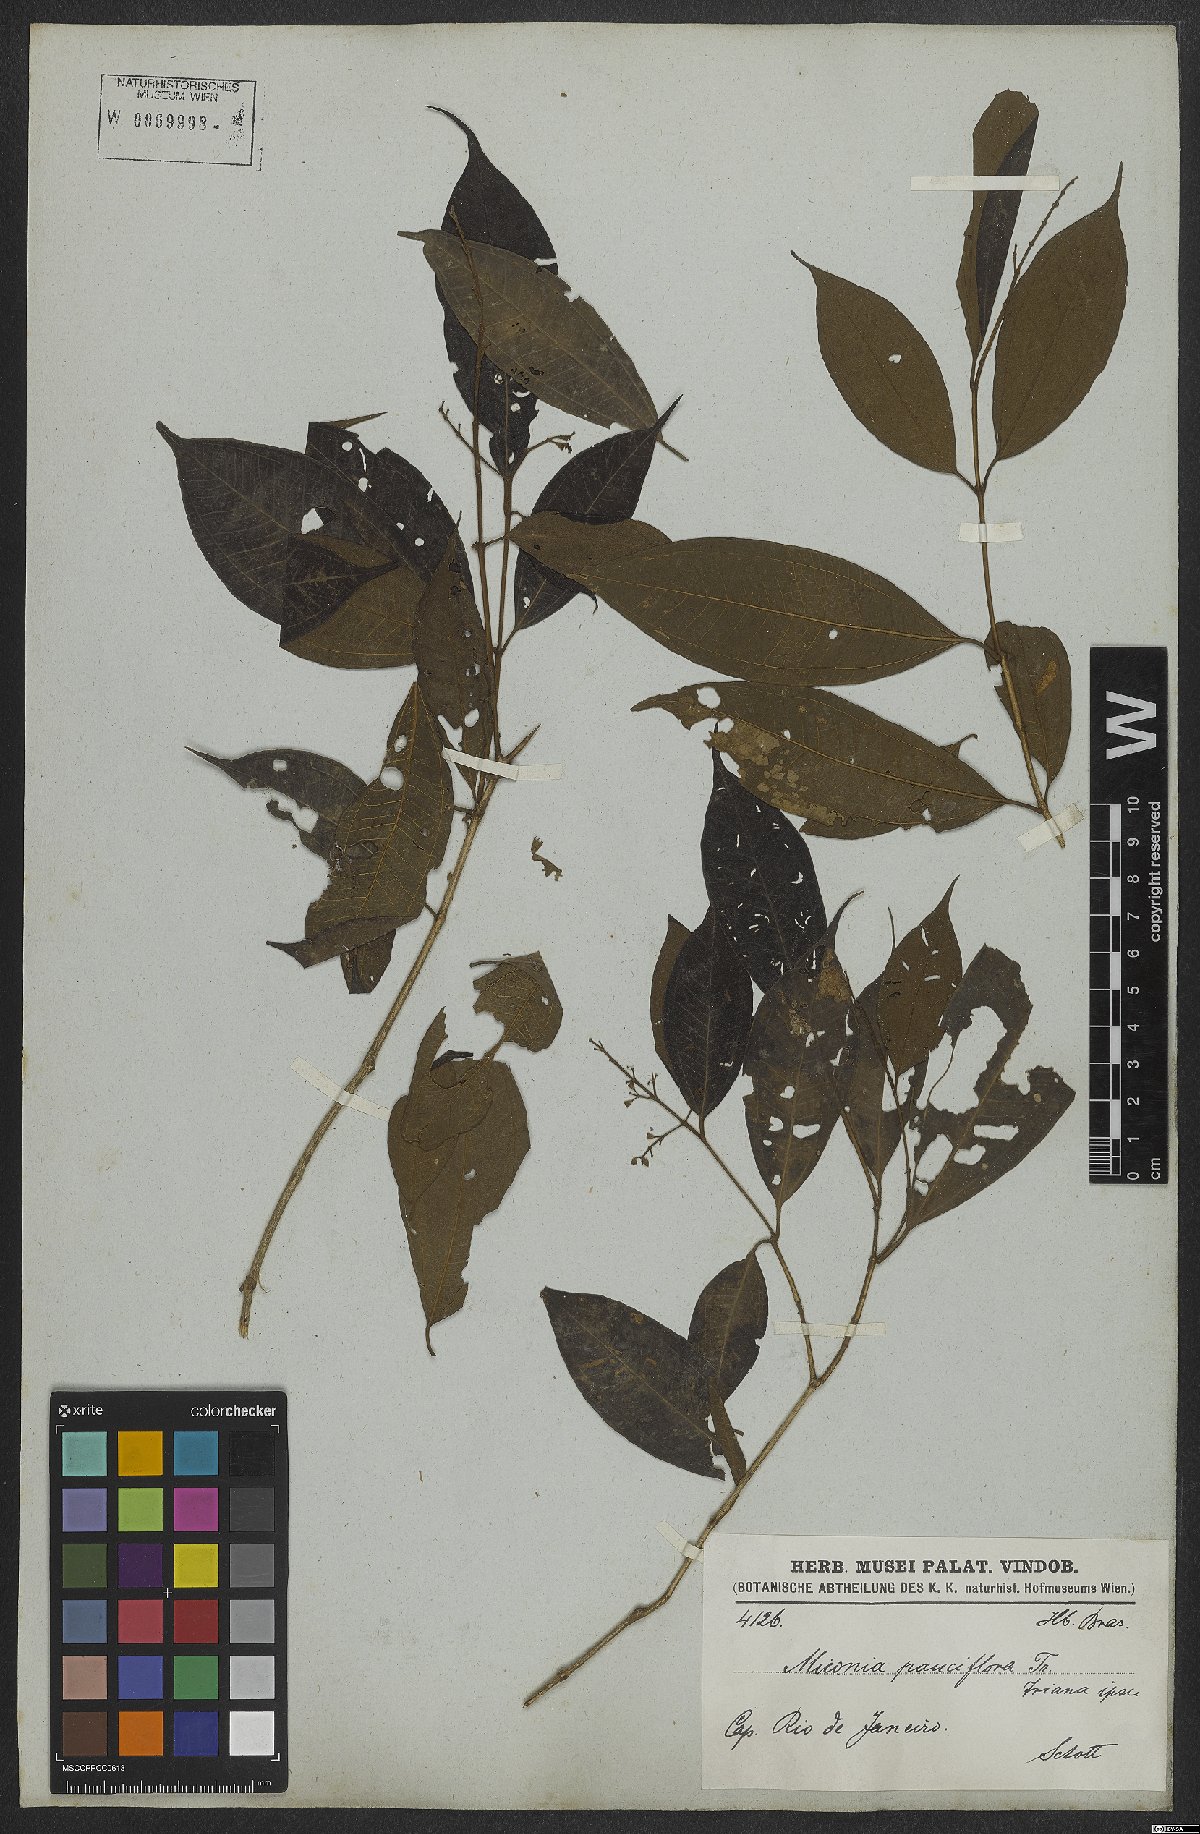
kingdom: Plantae
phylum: Tracheophyta
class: Magnoliopsida
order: Myrtales
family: Melastomataceae
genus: Miconia
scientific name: Miconia brasiliensis
